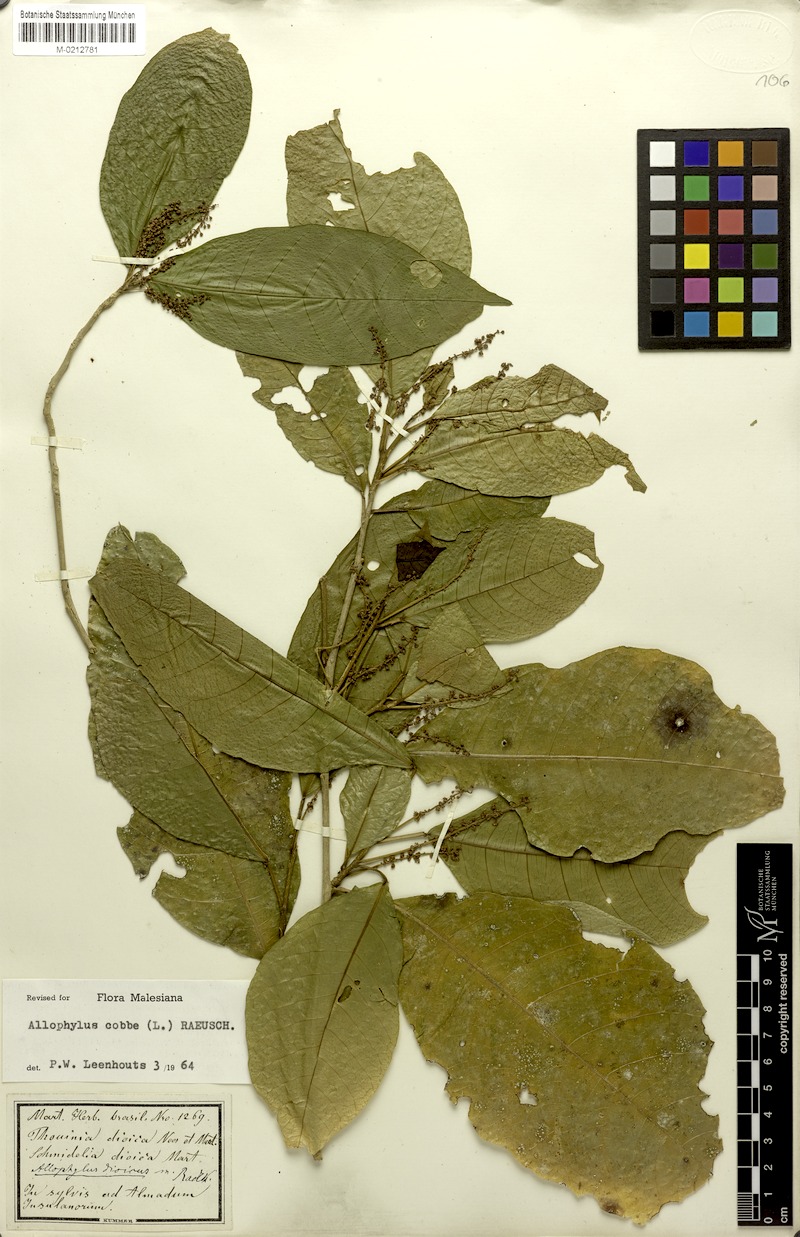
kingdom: Plantae
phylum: Tracheophyta
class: Magnoliopsida
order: Sapindales
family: Sapindaceae
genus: Allophylus
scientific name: Allophylus dioicus
